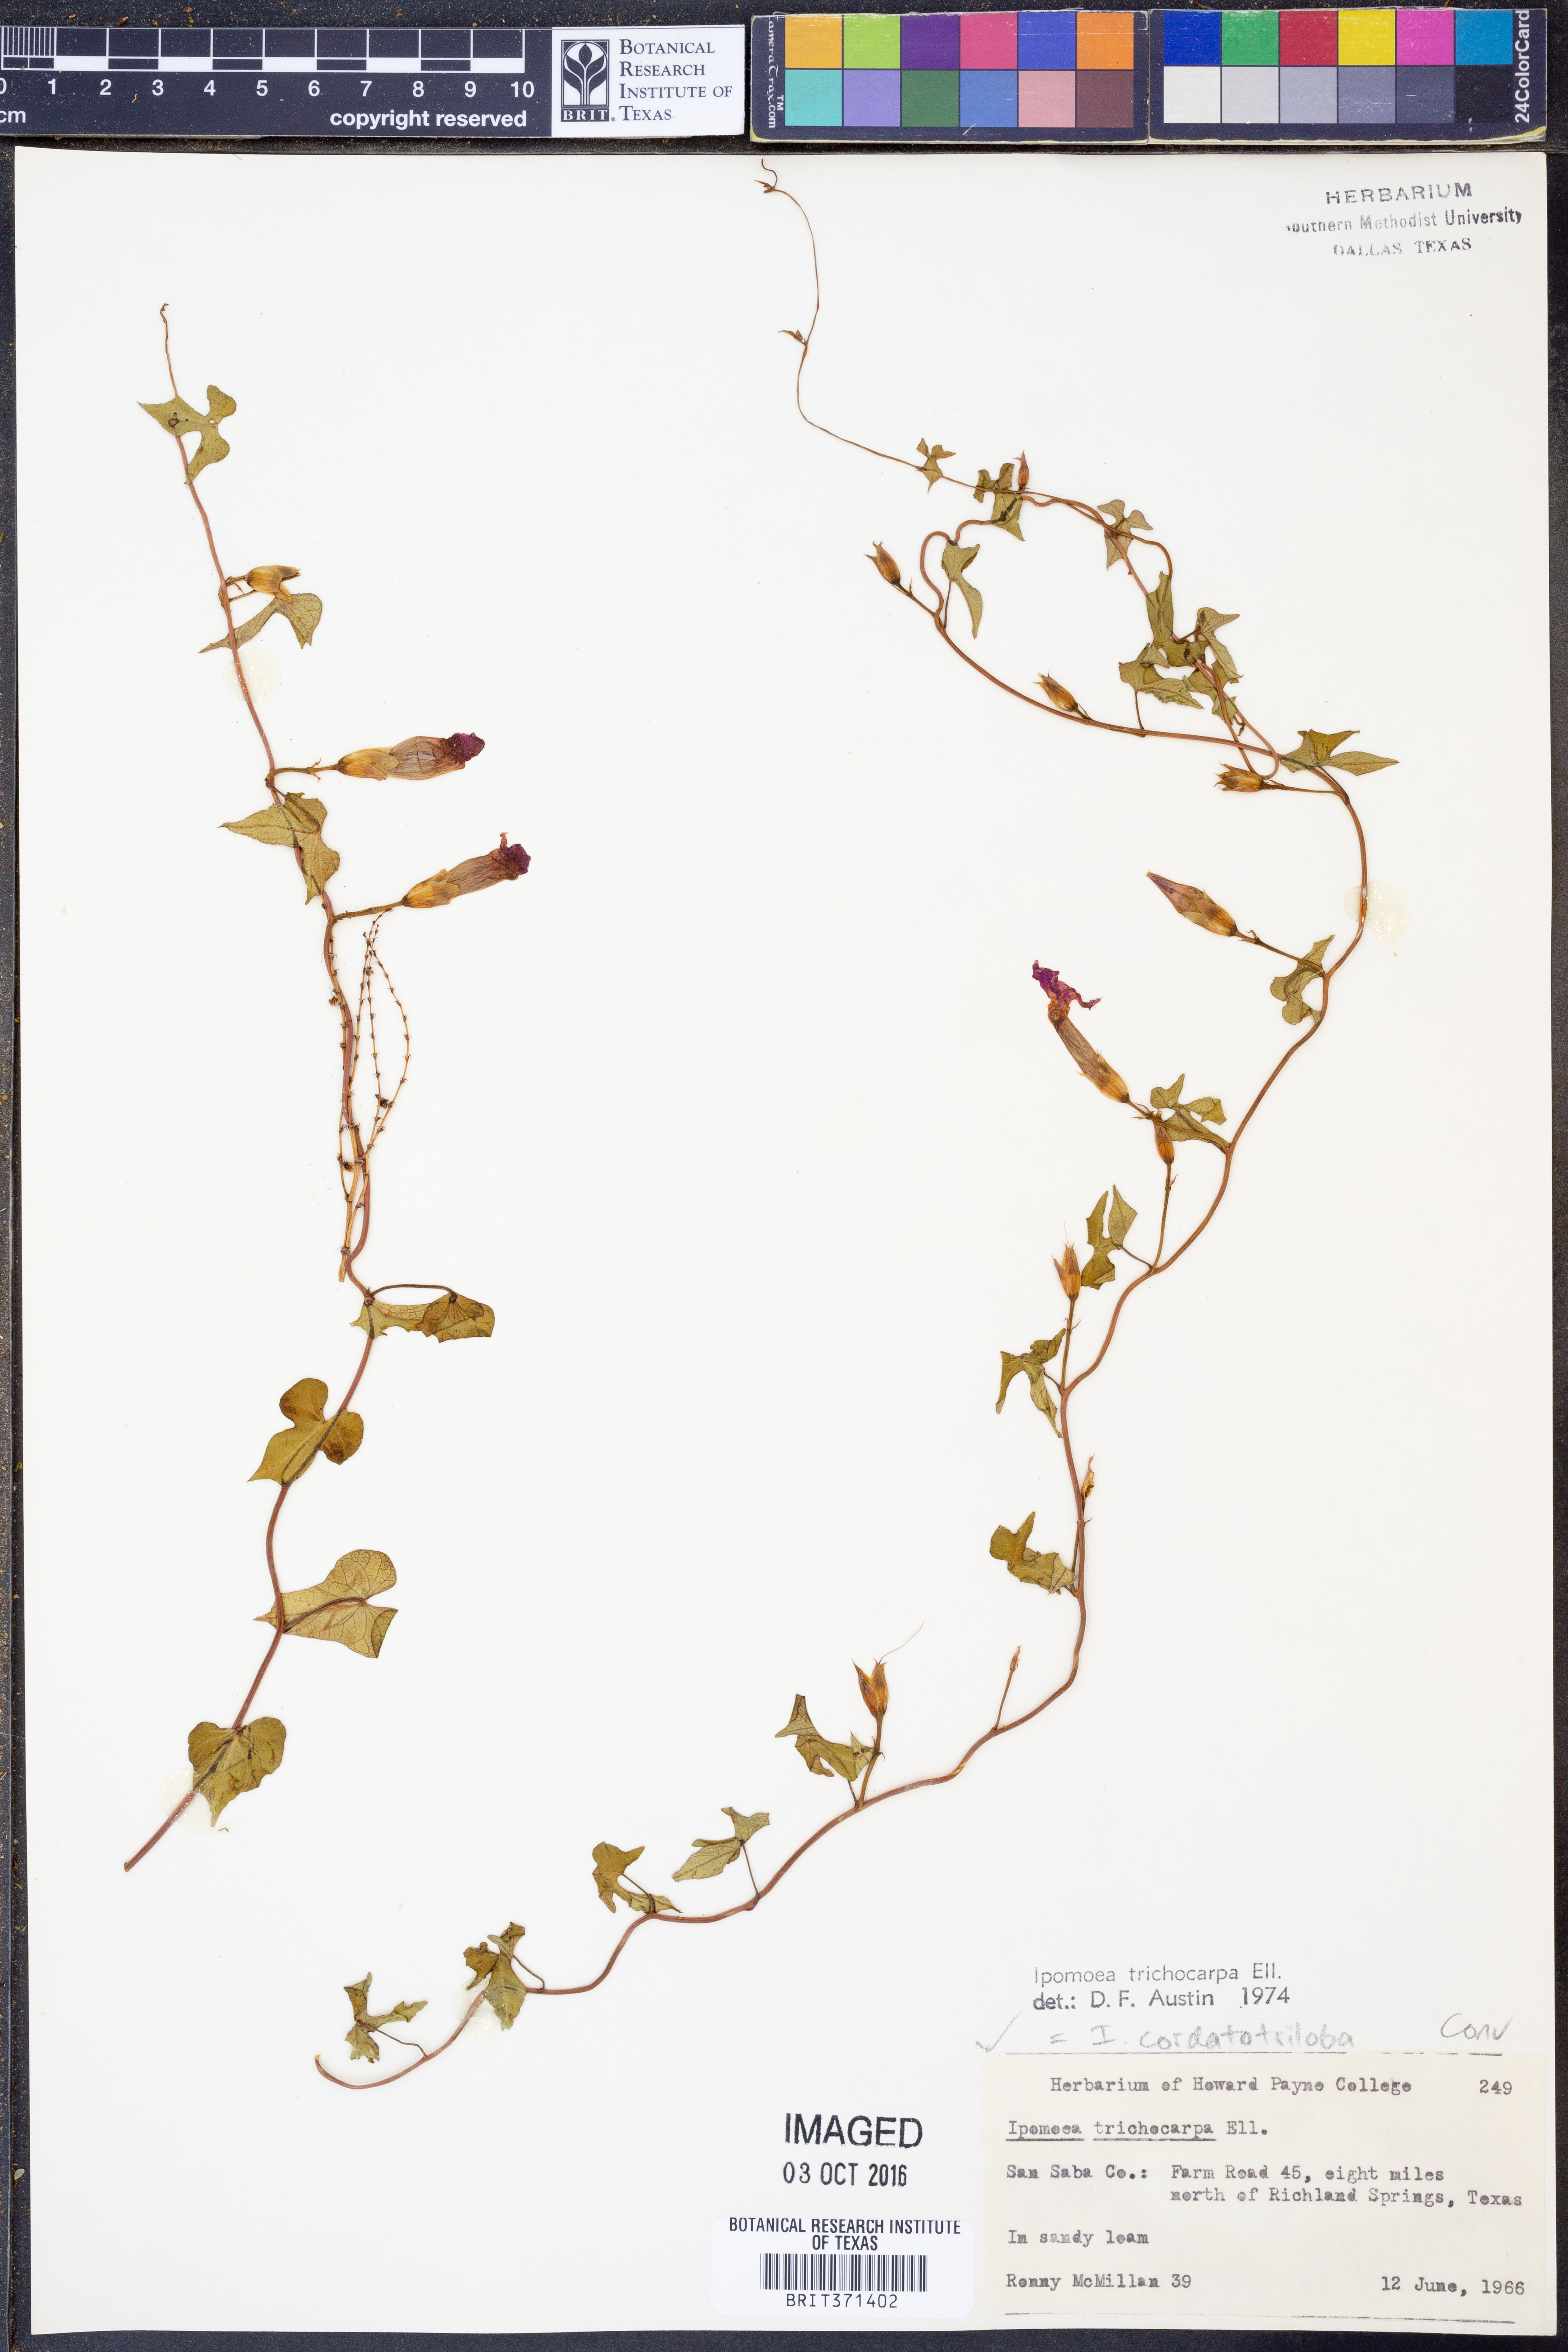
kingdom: Plantae
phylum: Tracheophyta
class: Magnoliopsida
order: Solanales
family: Convolvulaceae
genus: Ipomoea
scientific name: Ipomoea cordatotriloba
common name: Cotton morning glory
